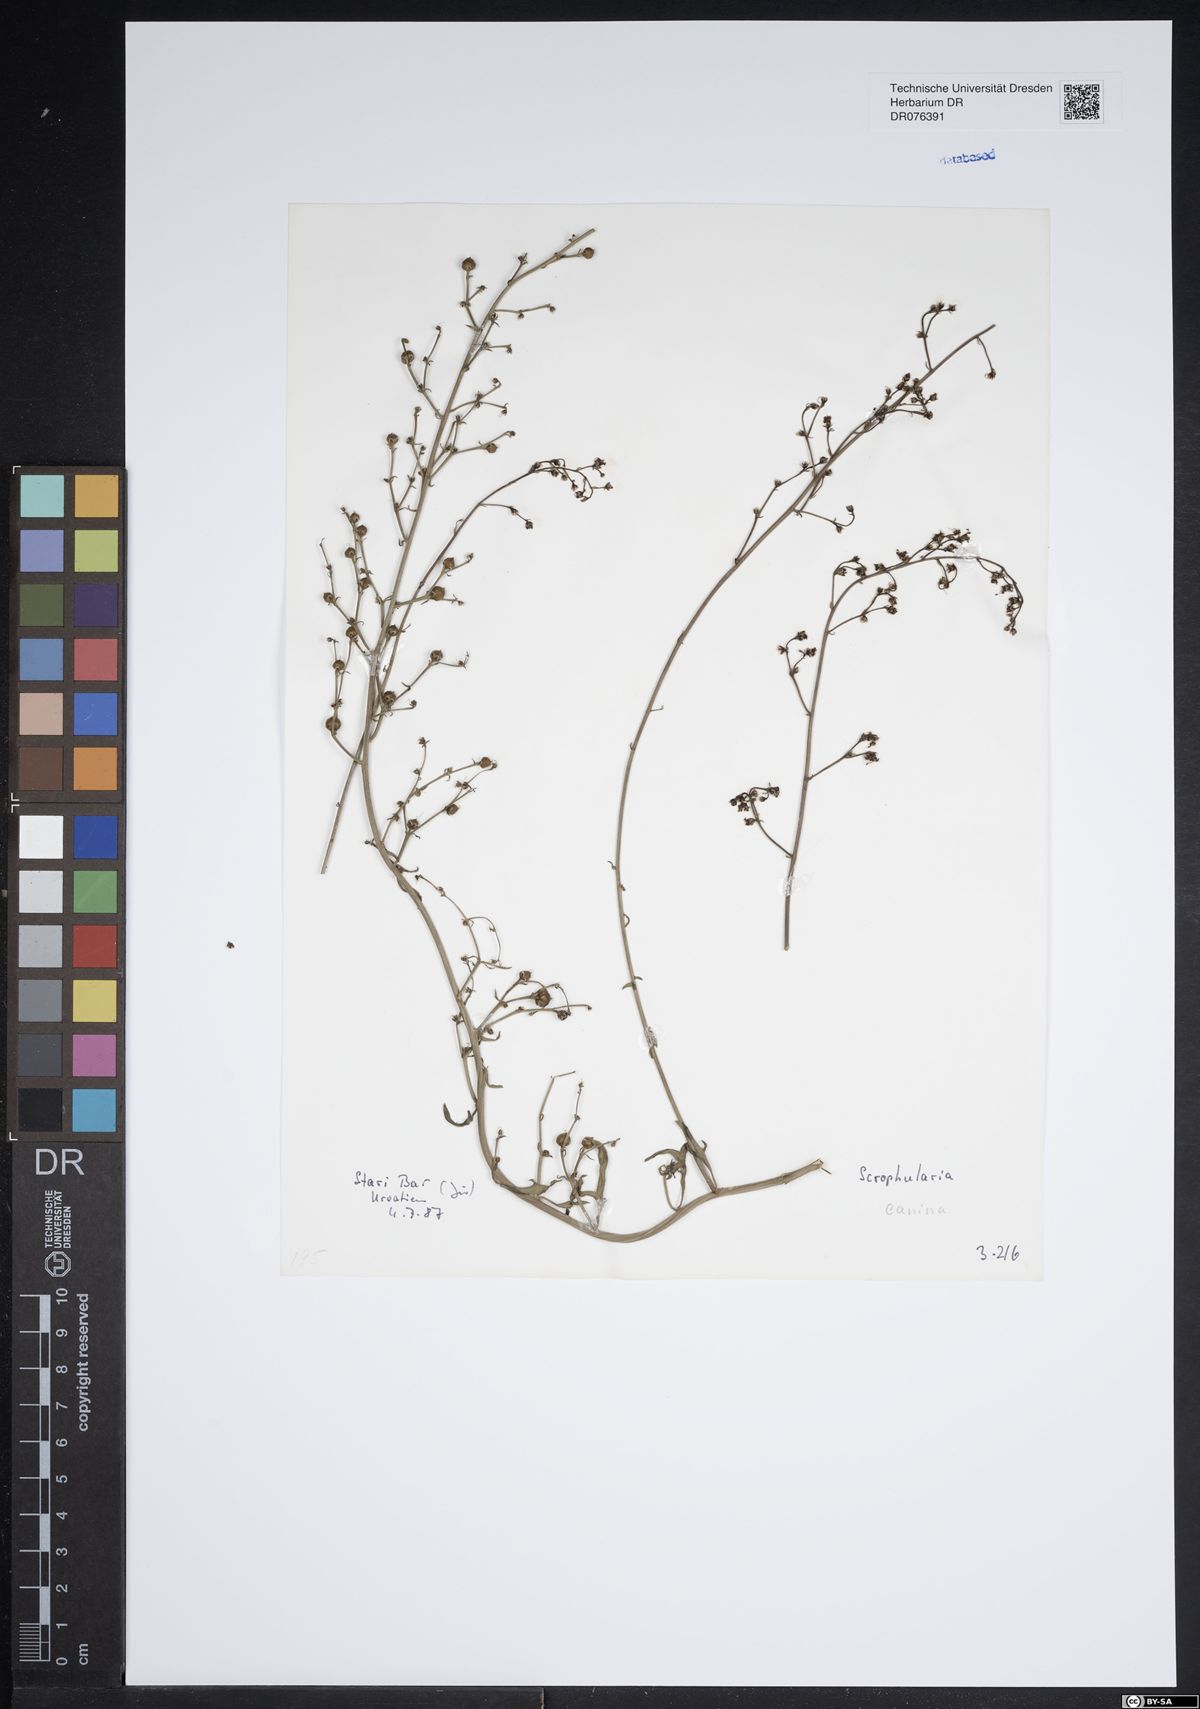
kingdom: Plantae
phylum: Tracheophyta
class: Magnoliopsida
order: Lamiales
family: Scrophulariaceae
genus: Scrophularia
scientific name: Scrophularia canina
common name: French figwort
